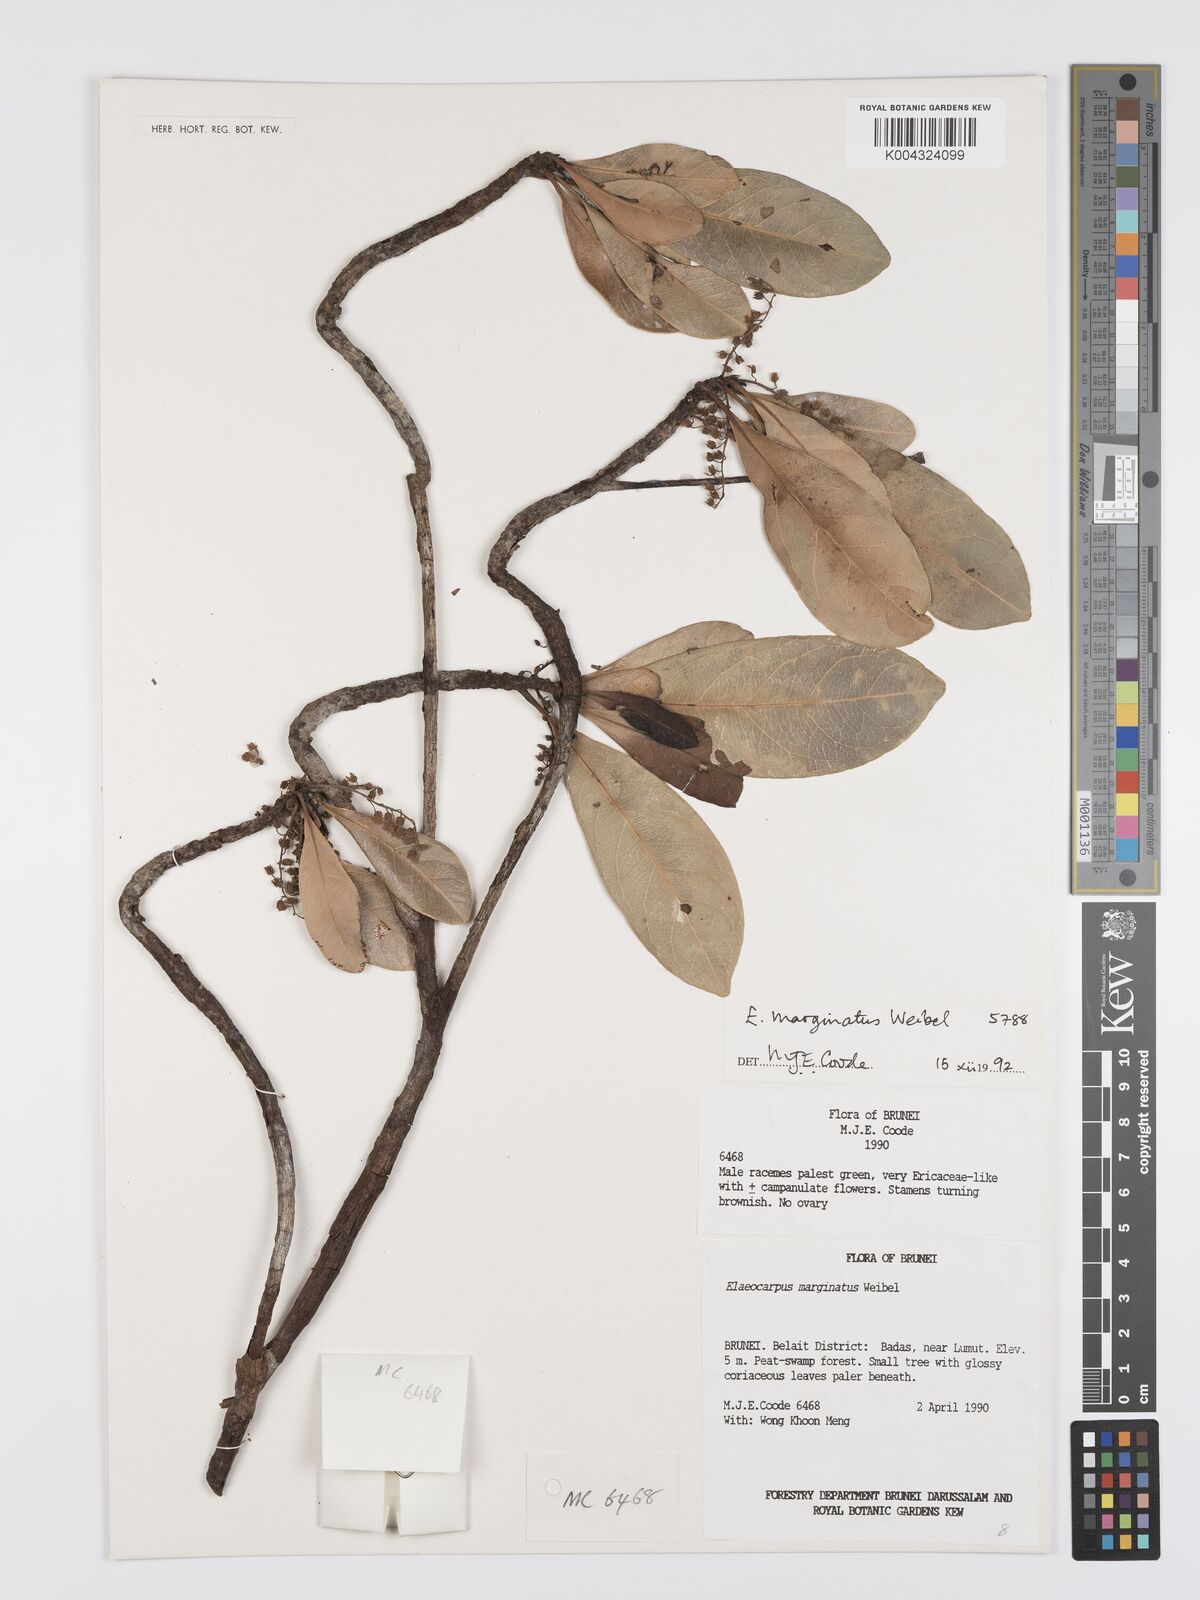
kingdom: Plantae
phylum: Tracheophyta
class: Magnoliopsida
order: Oxalidales
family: Elaeocarpaceae
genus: Elaeocarpus
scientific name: Elaeocarpus marginatus
